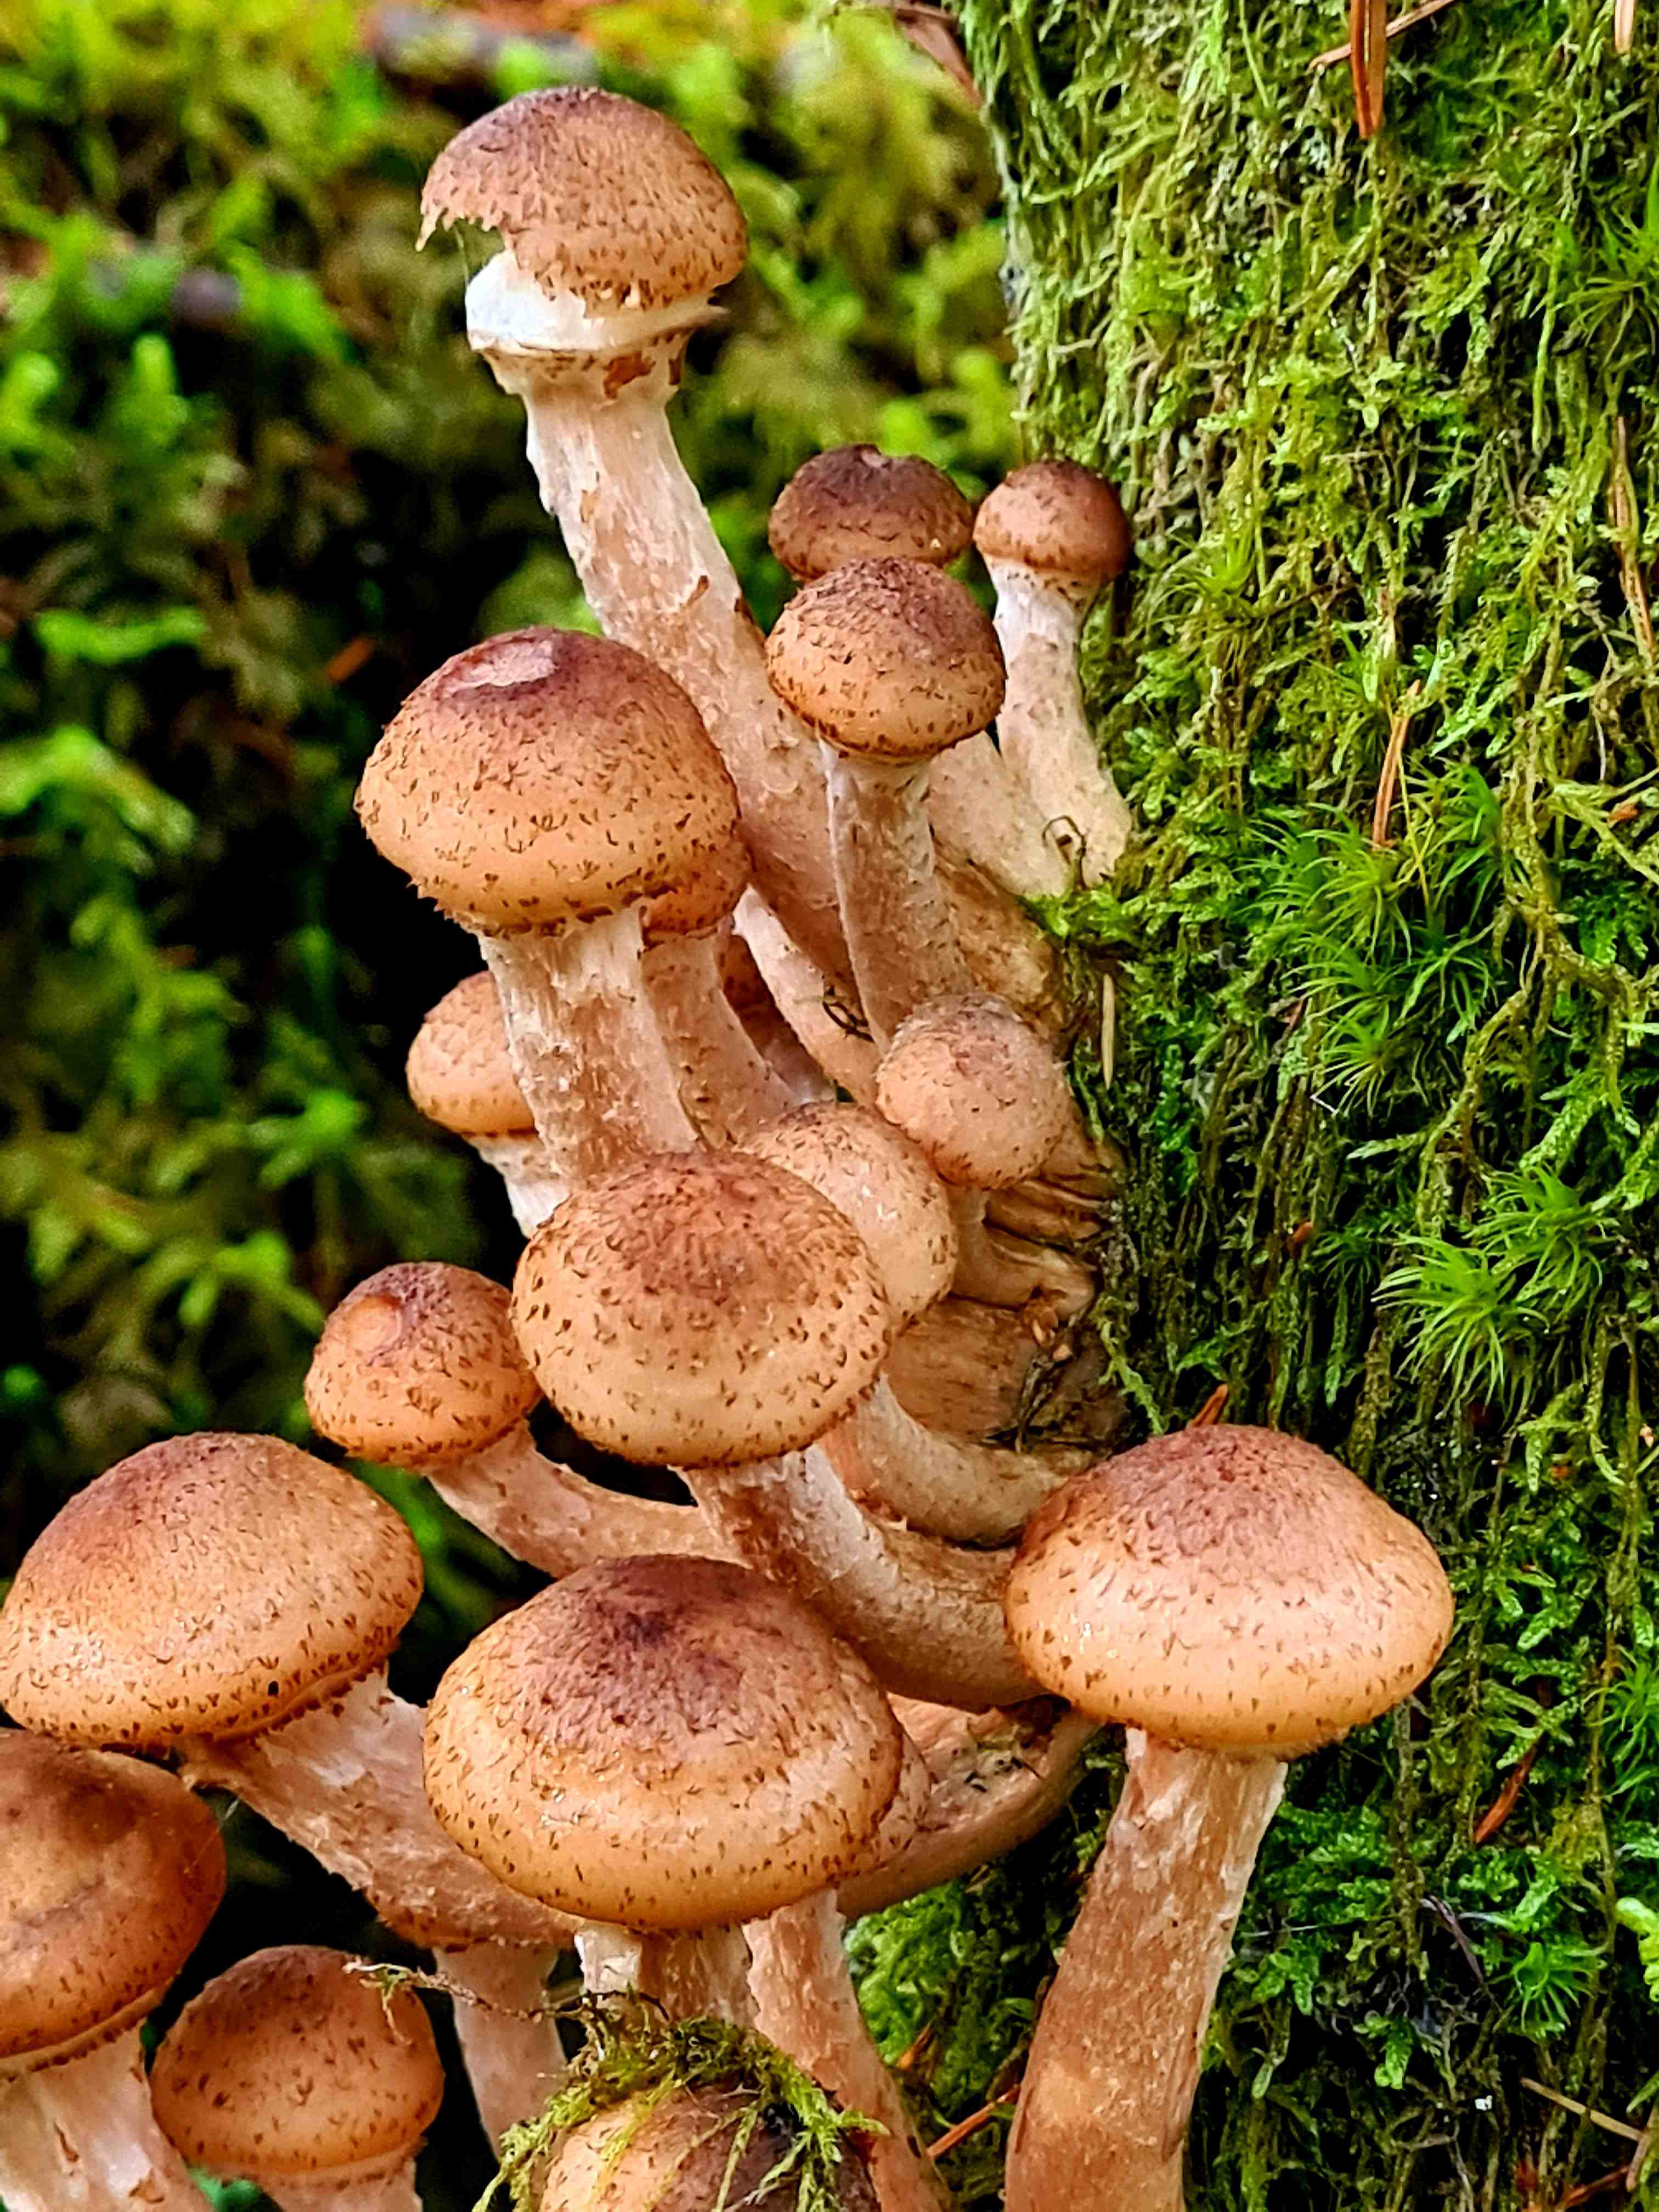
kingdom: Fungi
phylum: Basidiomycota
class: Agaricomycetes
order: Agaricales
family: Physalacriaceae
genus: Armillaria
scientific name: Armillaria ostoyae
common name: mørk honningsvamp
